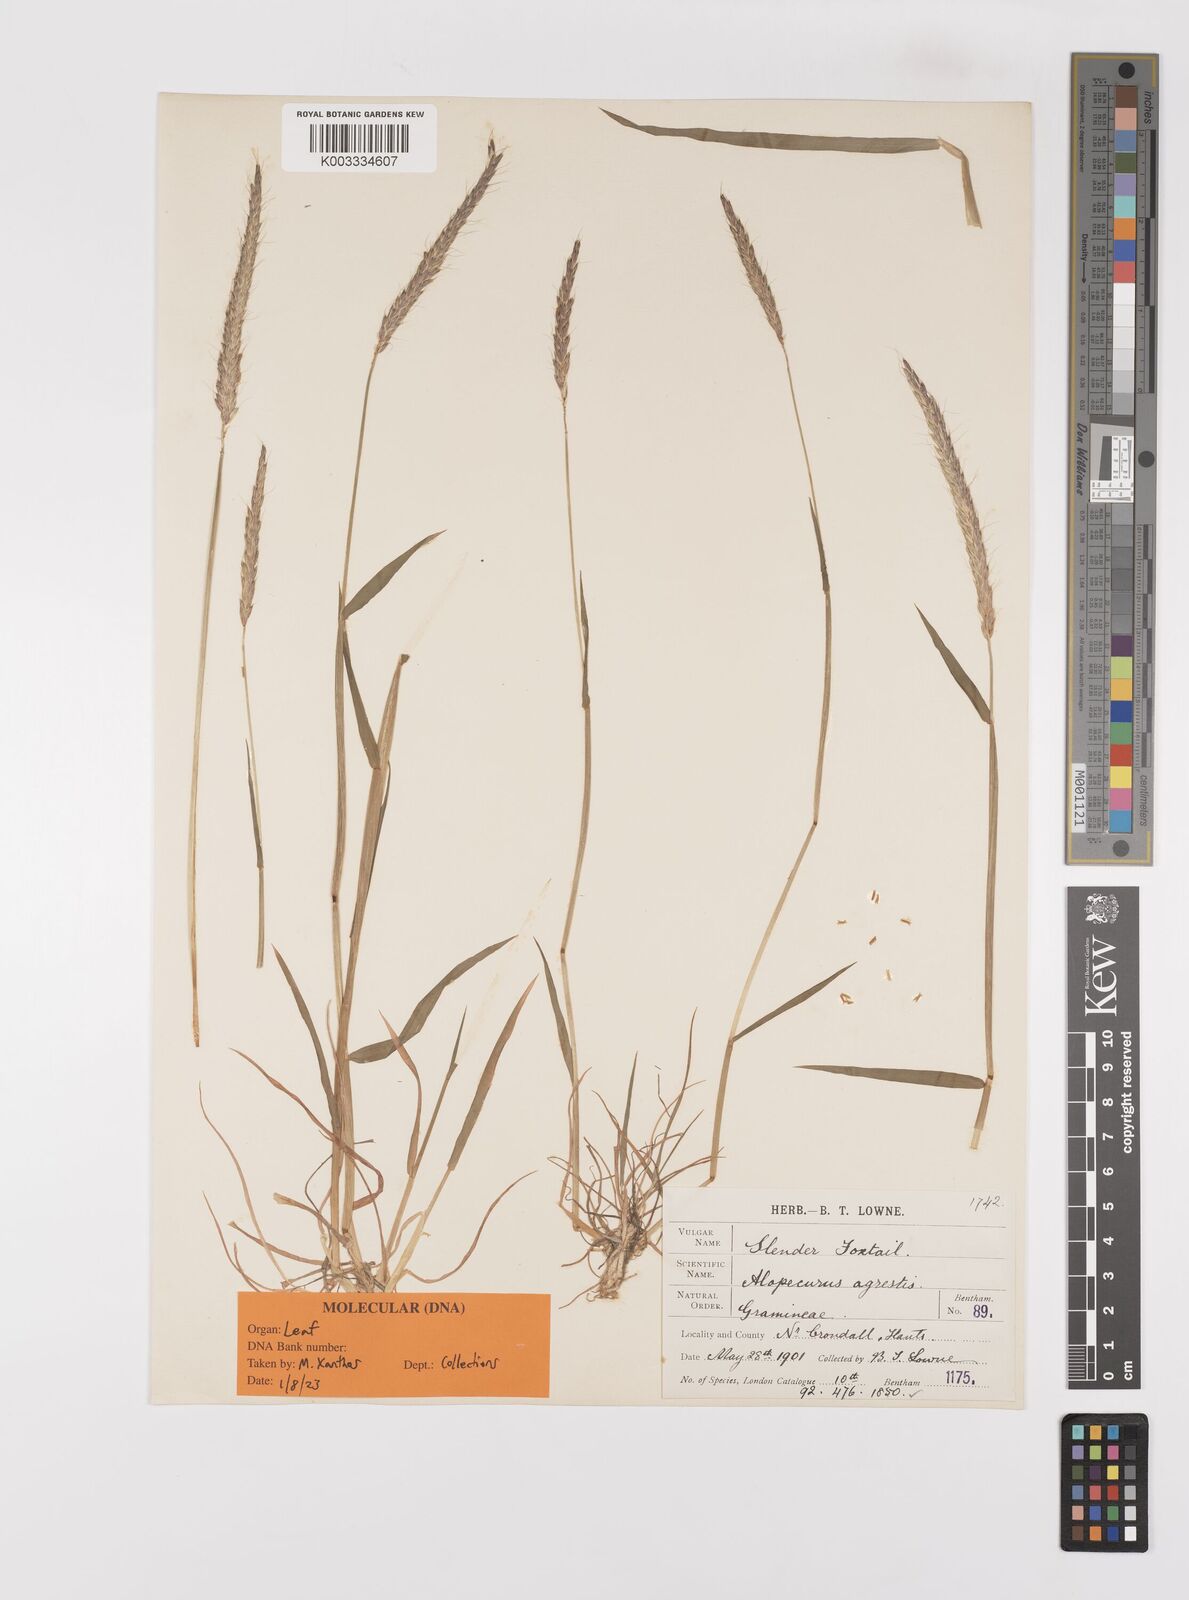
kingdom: Plantae
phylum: Tracheophyta
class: Liliopsida
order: Poales
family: Poaceae
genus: Alopecurus
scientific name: Alopecurus myosuroides
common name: Black-grass
